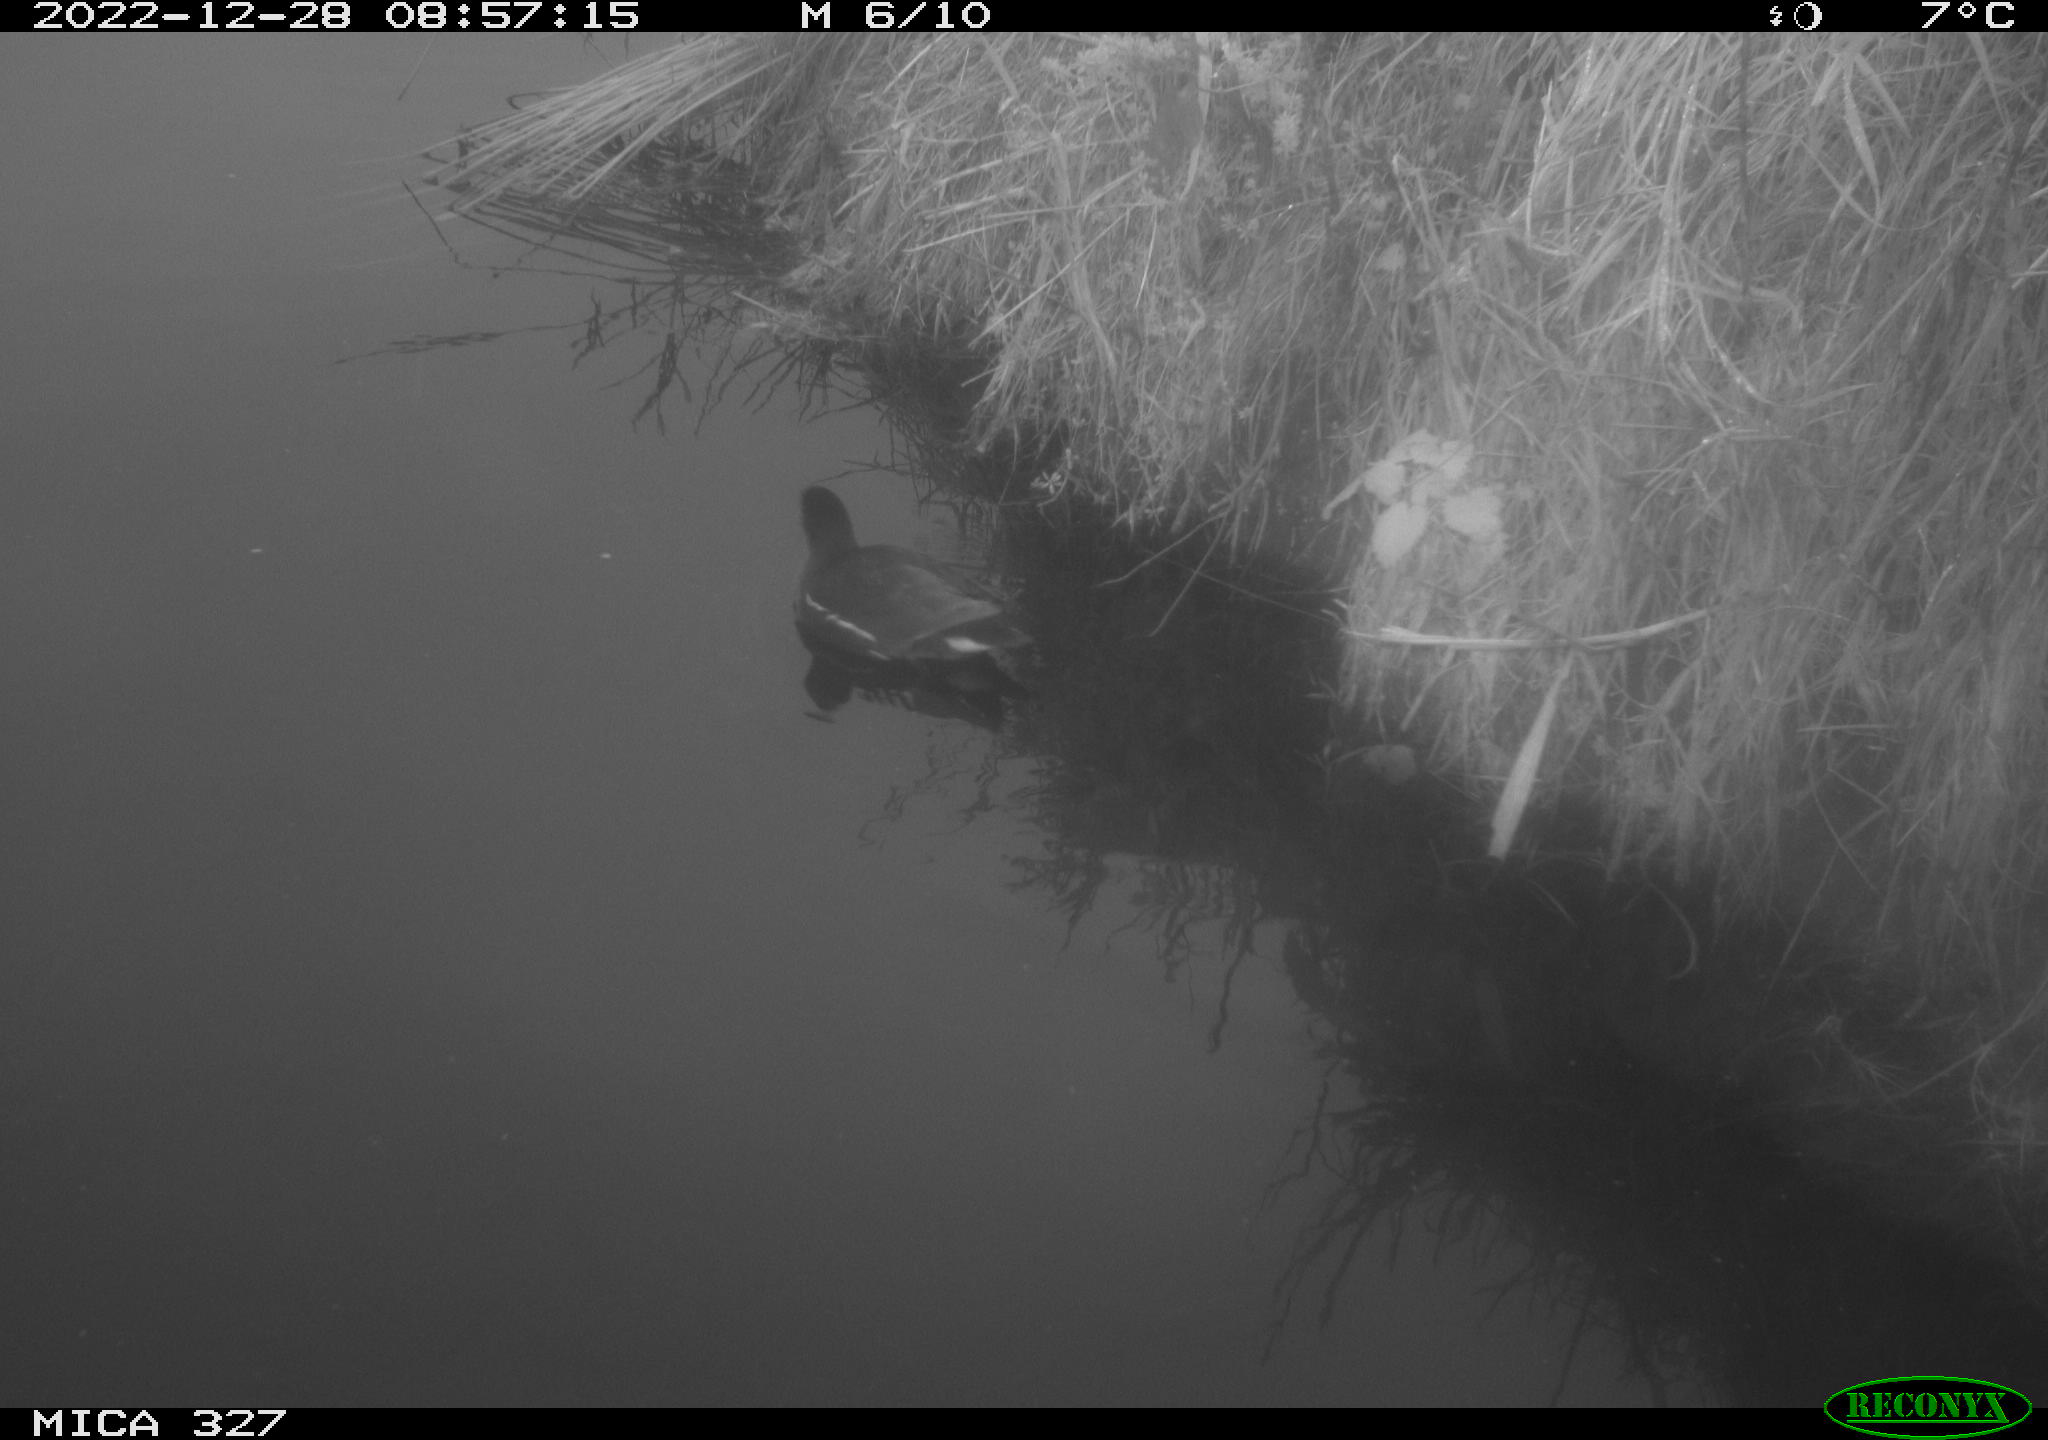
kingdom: Animalia
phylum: Chordata
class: Aves
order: Gruiformes
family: Rallidae
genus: Gallinula
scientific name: Gallinula chloropus
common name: Common moorhen
